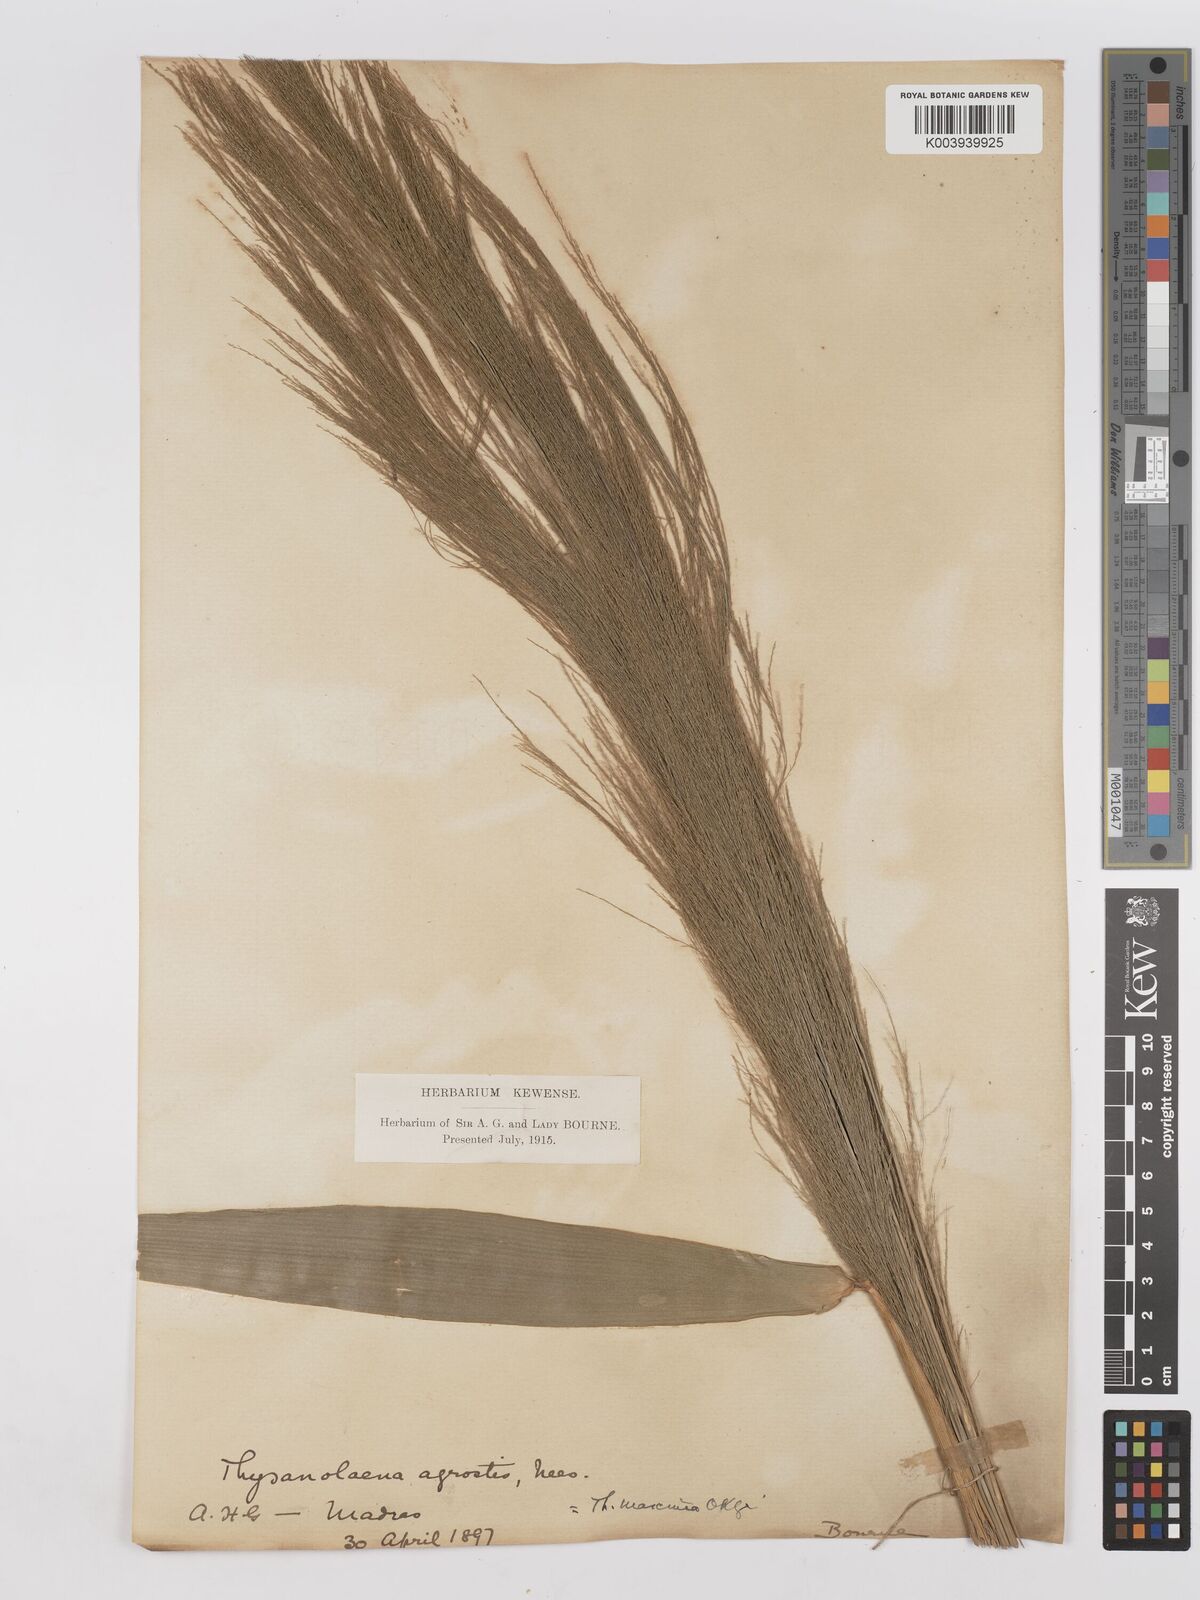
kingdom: Plantae
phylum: Tracheophyta
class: Liliopsida
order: Poales
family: Poaceae
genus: Thysanolaena
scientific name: Thysanolaena latifolia
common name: Tiger grass
